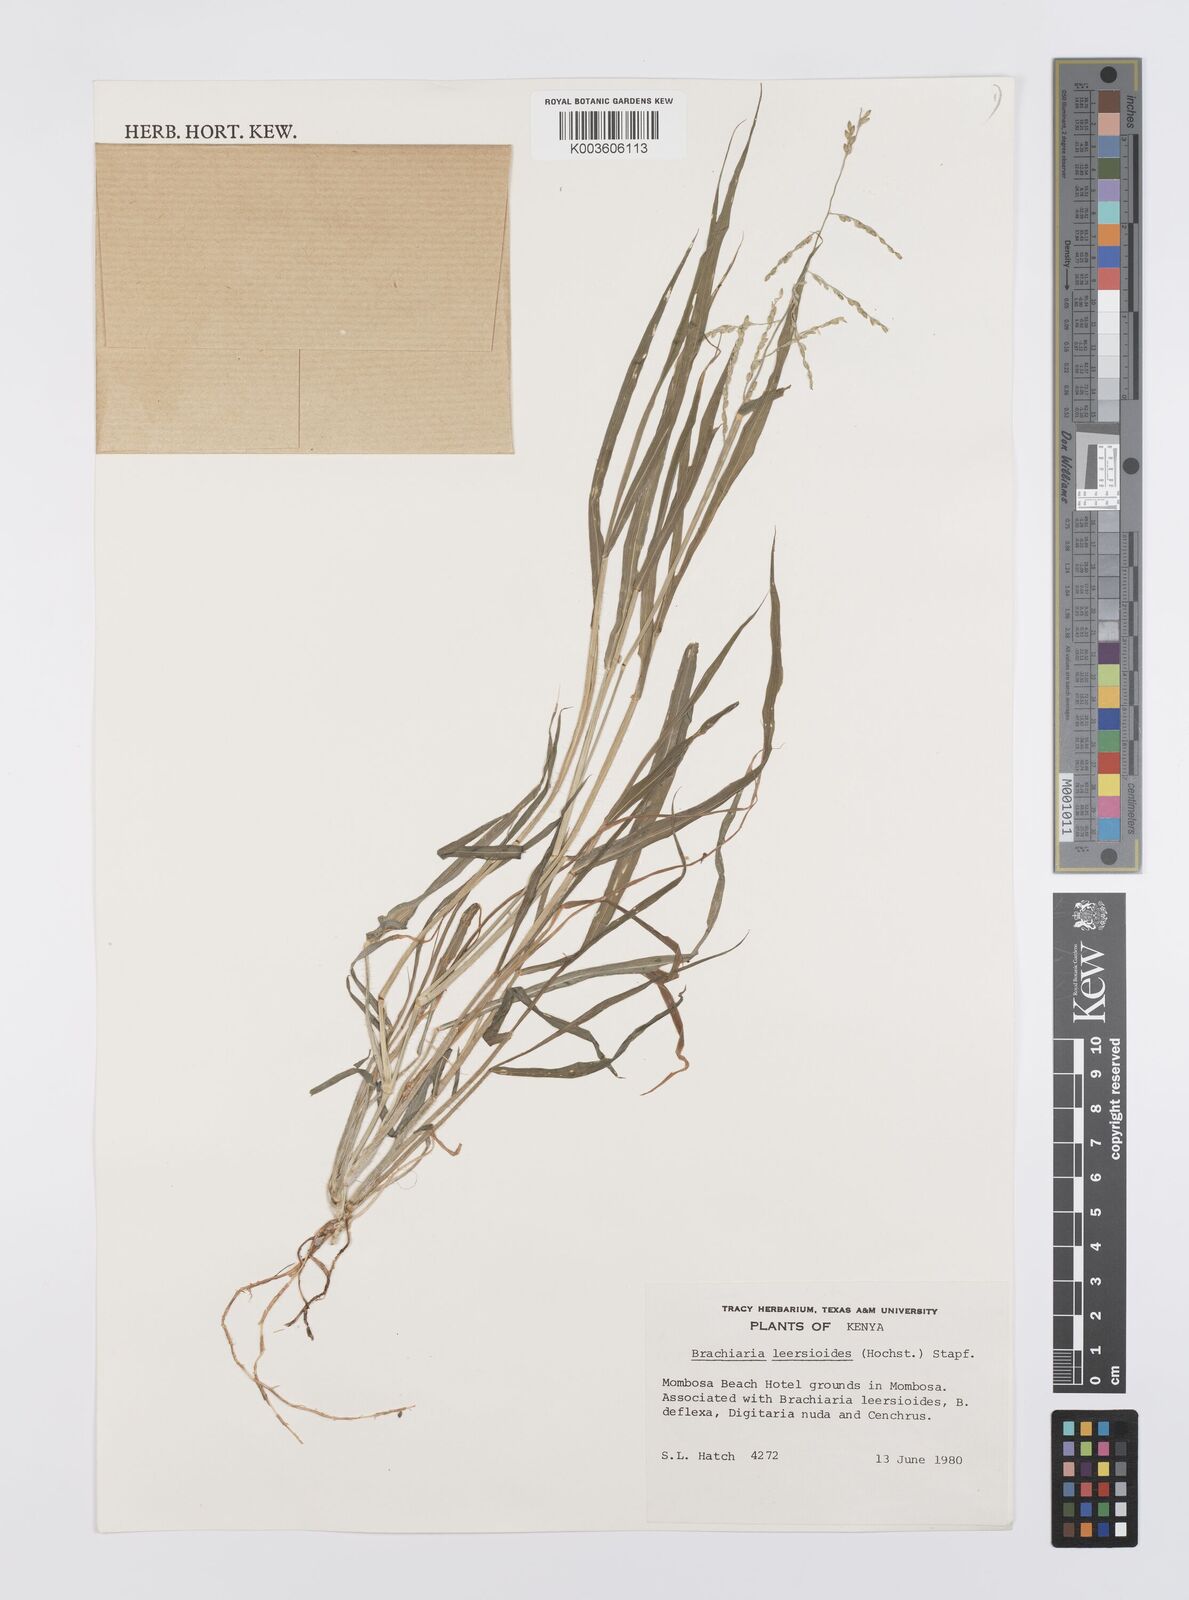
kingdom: Plantae
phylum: Tracheophyta
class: Liliopsida
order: Poales
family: Poaceae
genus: Urochloa
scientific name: Urochloa leersioides
